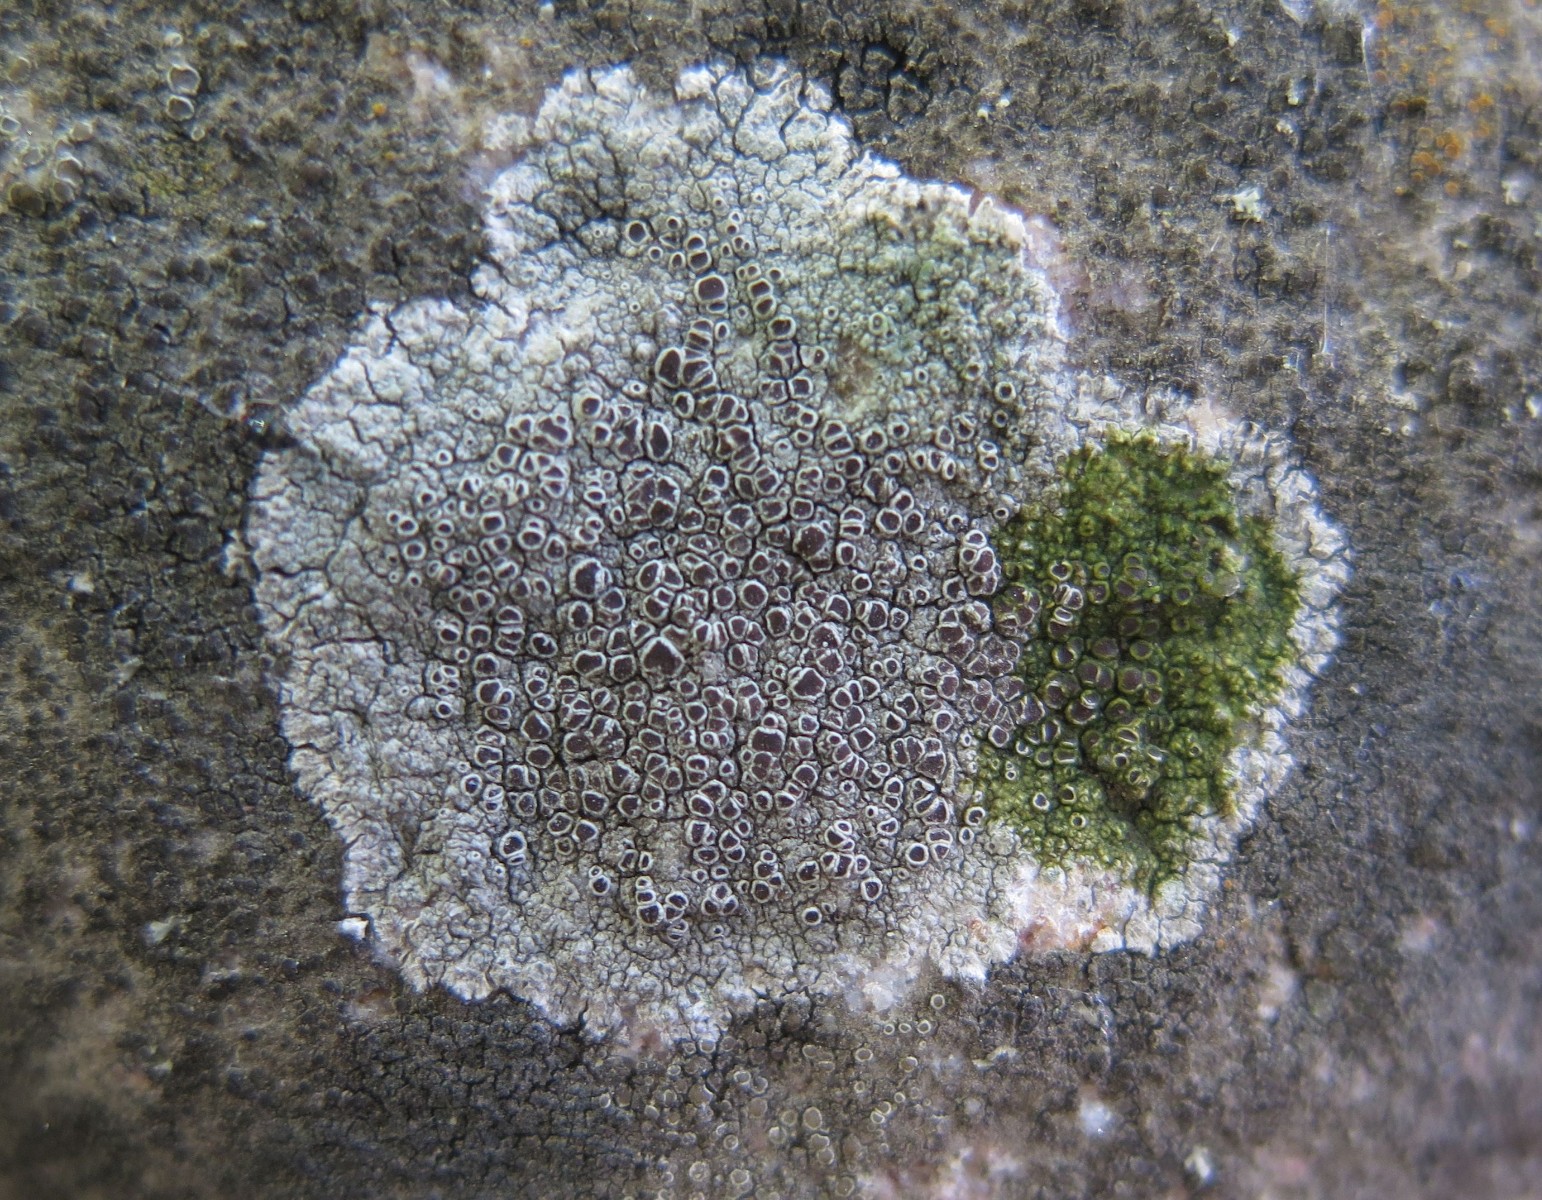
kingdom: Fungi
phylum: Ascomycota
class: Lecanoromycetes
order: Lecanorales
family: Lecanoraceae
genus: Lecanora
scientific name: Lecanora campestris
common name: mur-kantskivelav
